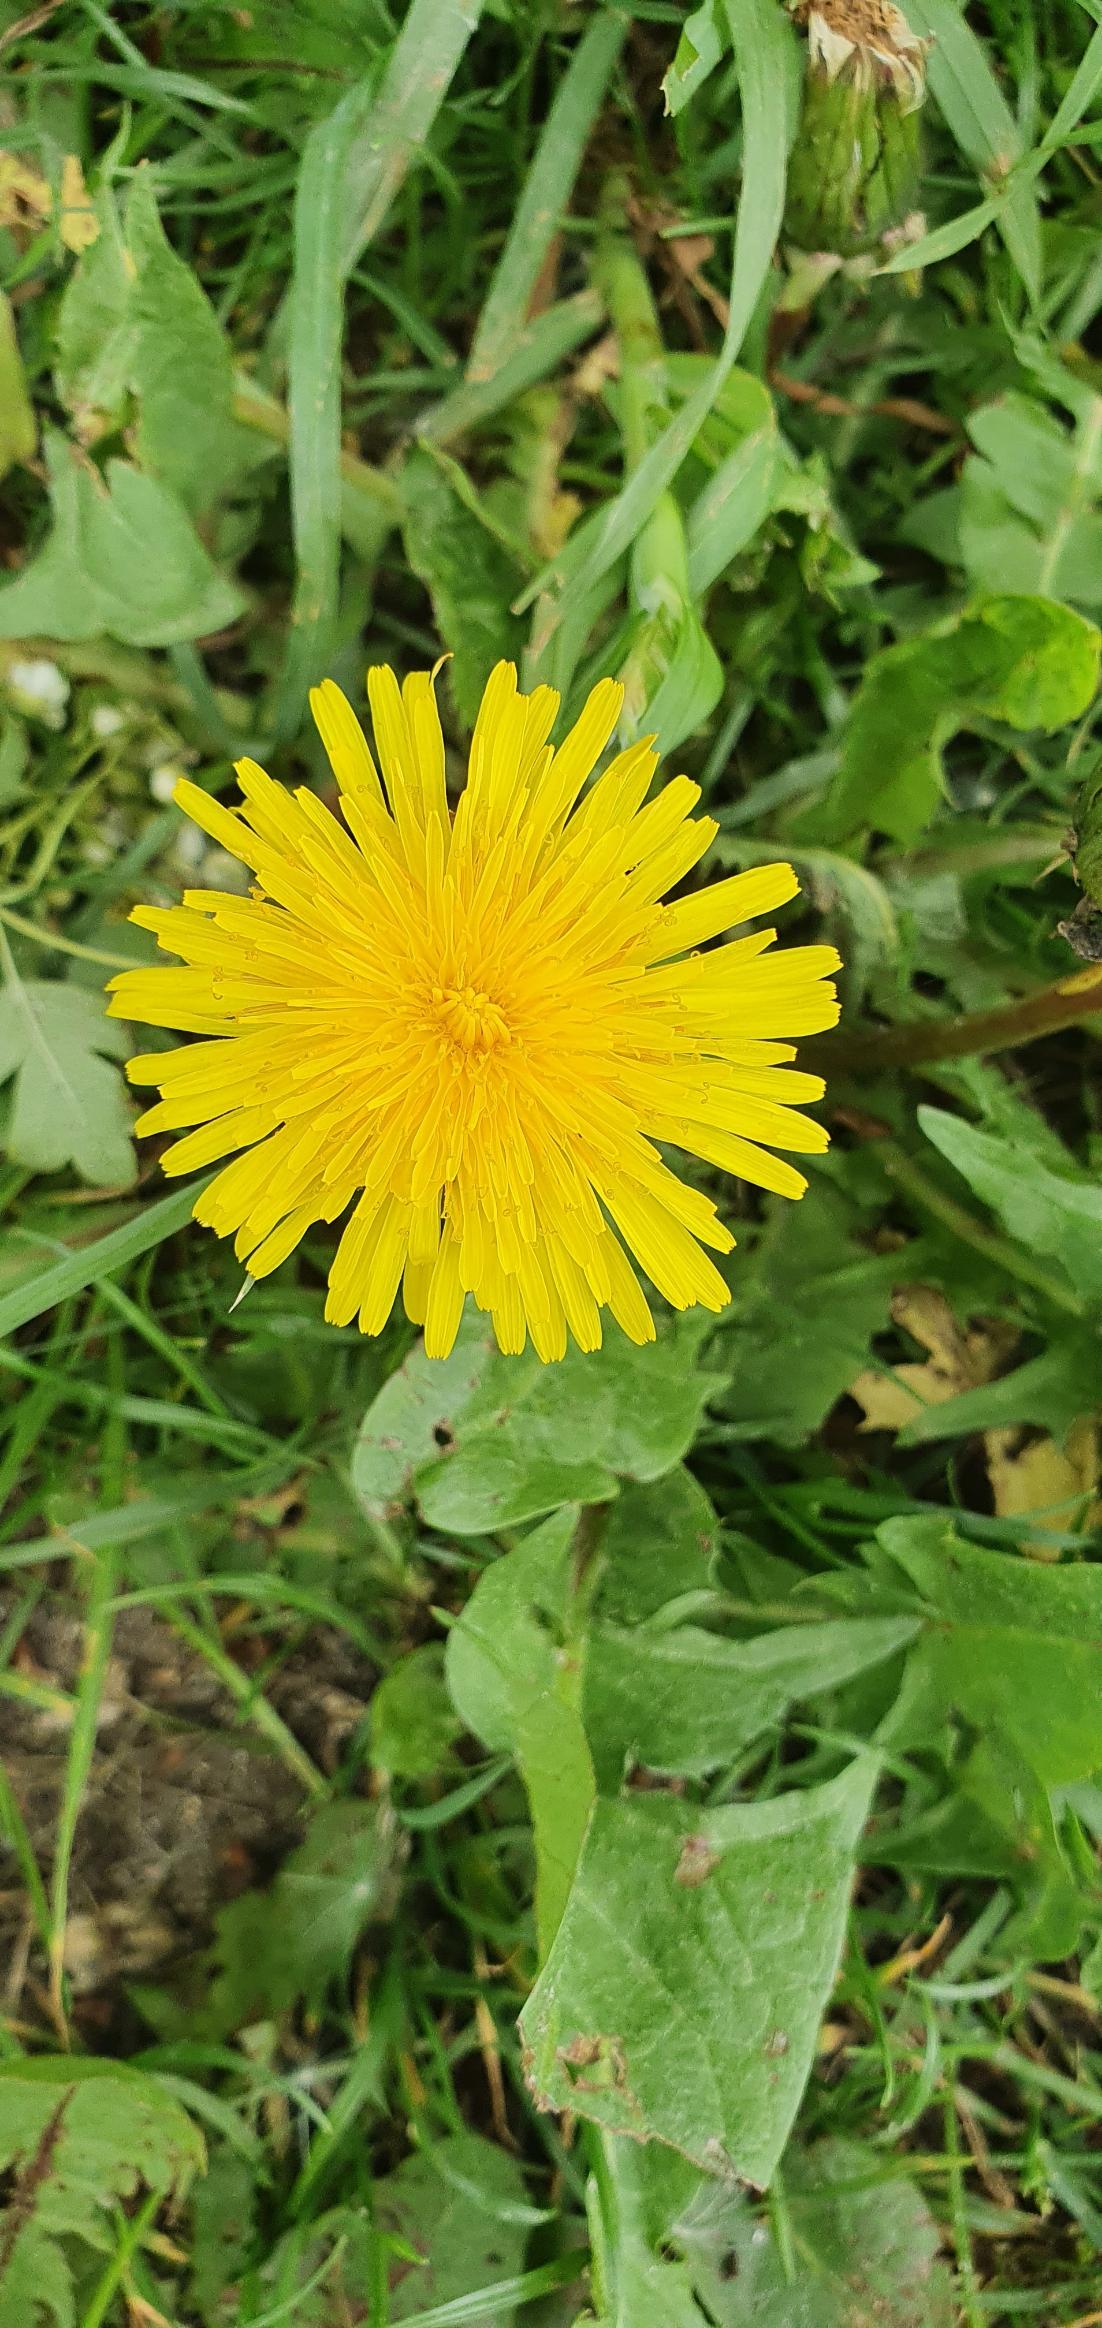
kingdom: Plantae
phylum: Tracheophyta
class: Magnoliopsida
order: Asterales
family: Asteraceae
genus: Taraxacum
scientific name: Taraxacum
